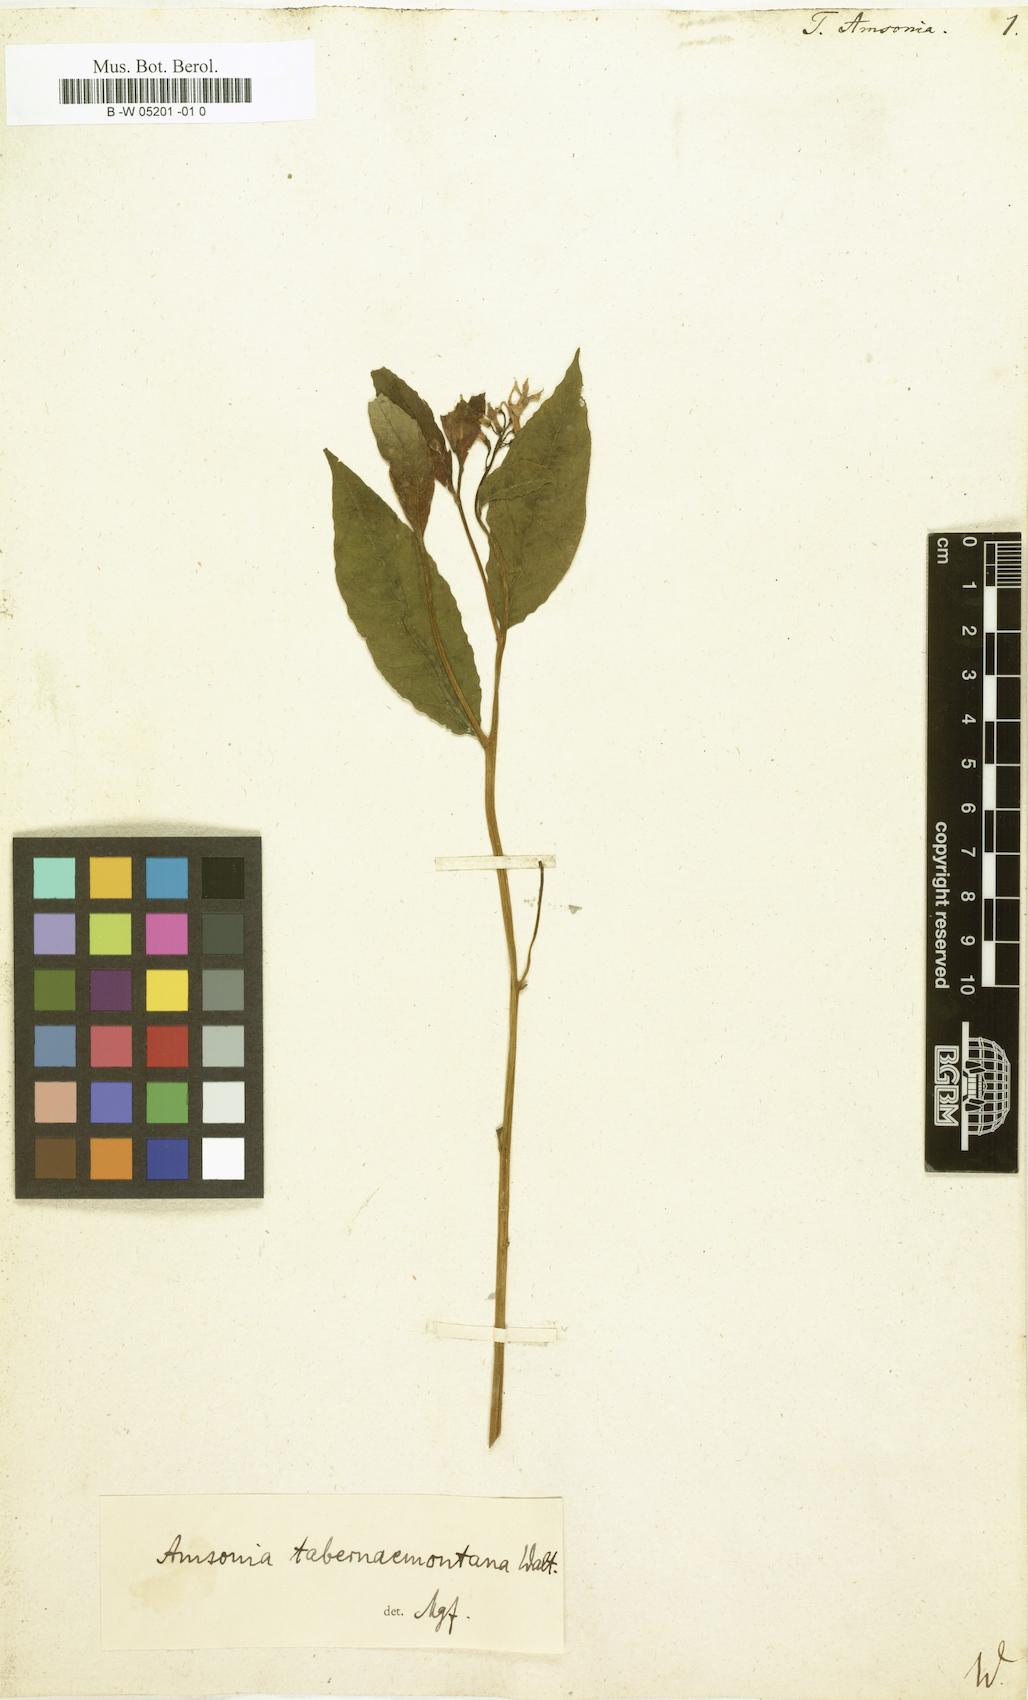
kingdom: Plantae
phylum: Tracheophyta
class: Magnoliopsida
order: Gentianales
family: Apocynaceae
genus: Amsonia
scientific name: Amsonia tabernaemontana
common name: Texas-star
